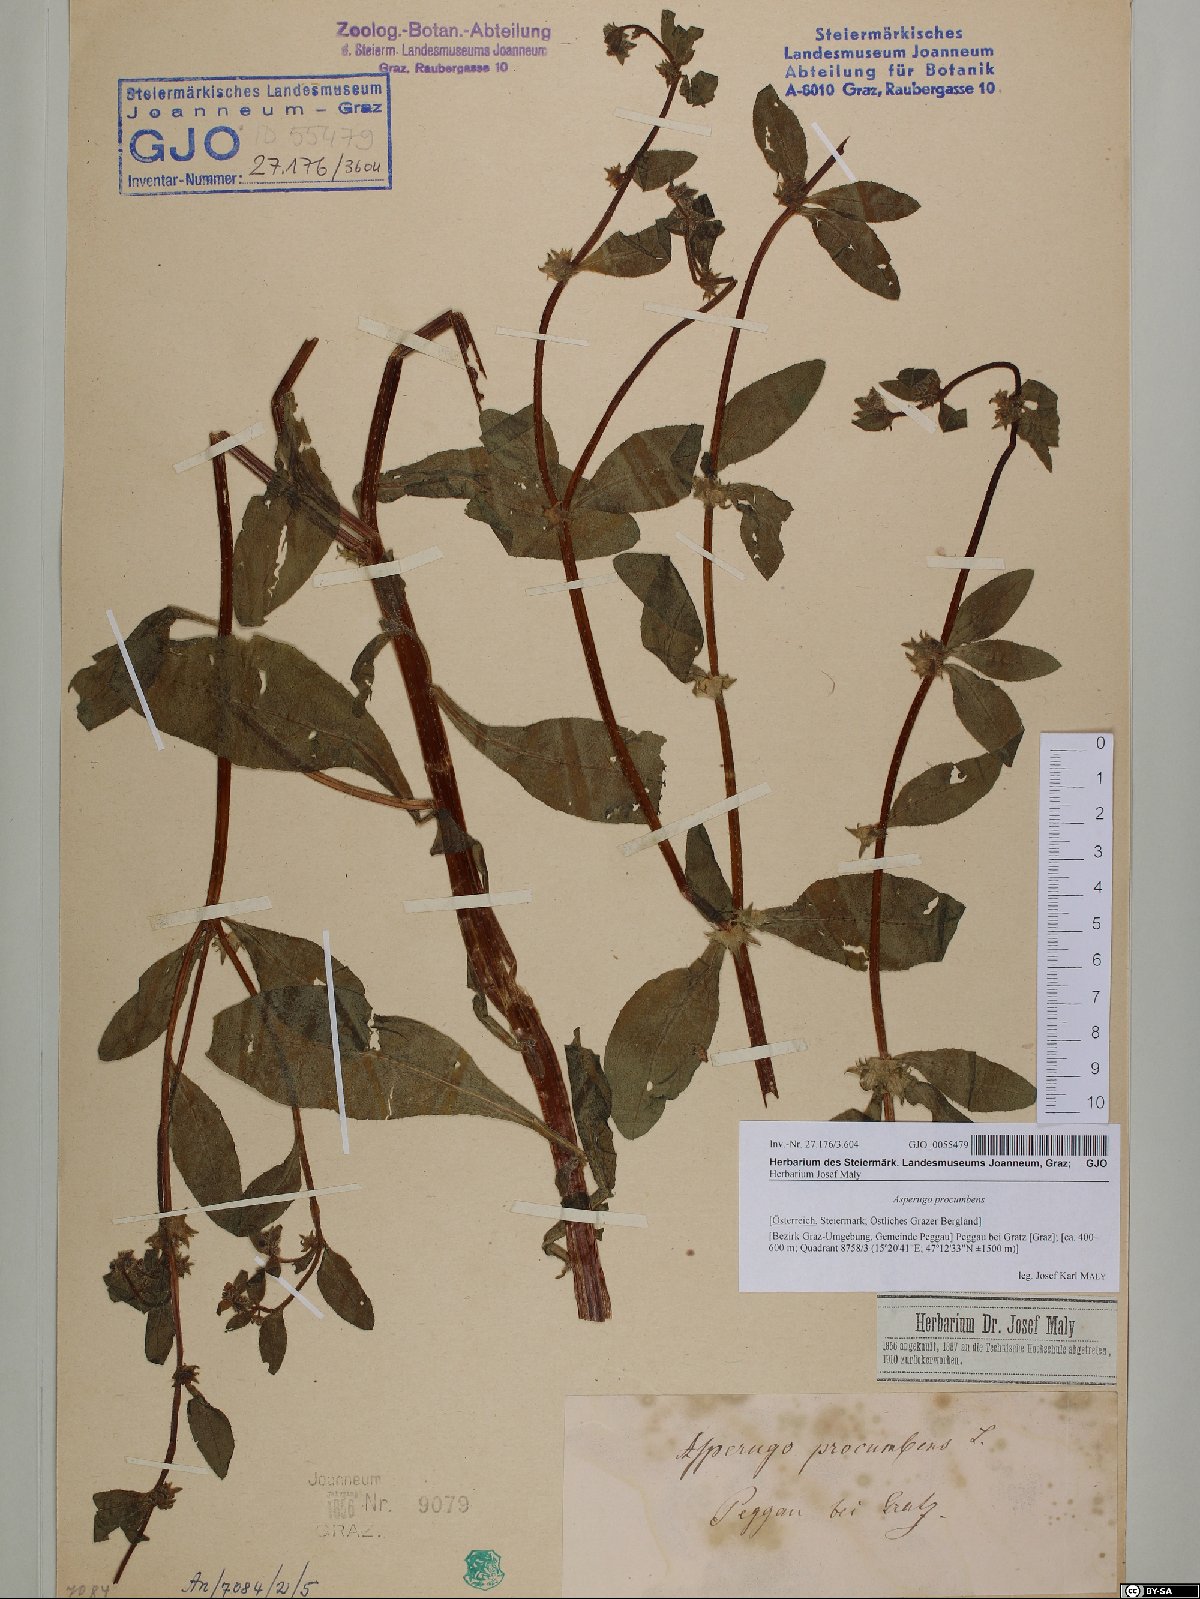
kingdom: Plantae
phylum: Tracheophyta
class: Magnoliopsida
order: Boraginales
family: Boraginaceae
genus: Asperugo
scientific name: Asperugo procumbens
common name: Madwort
